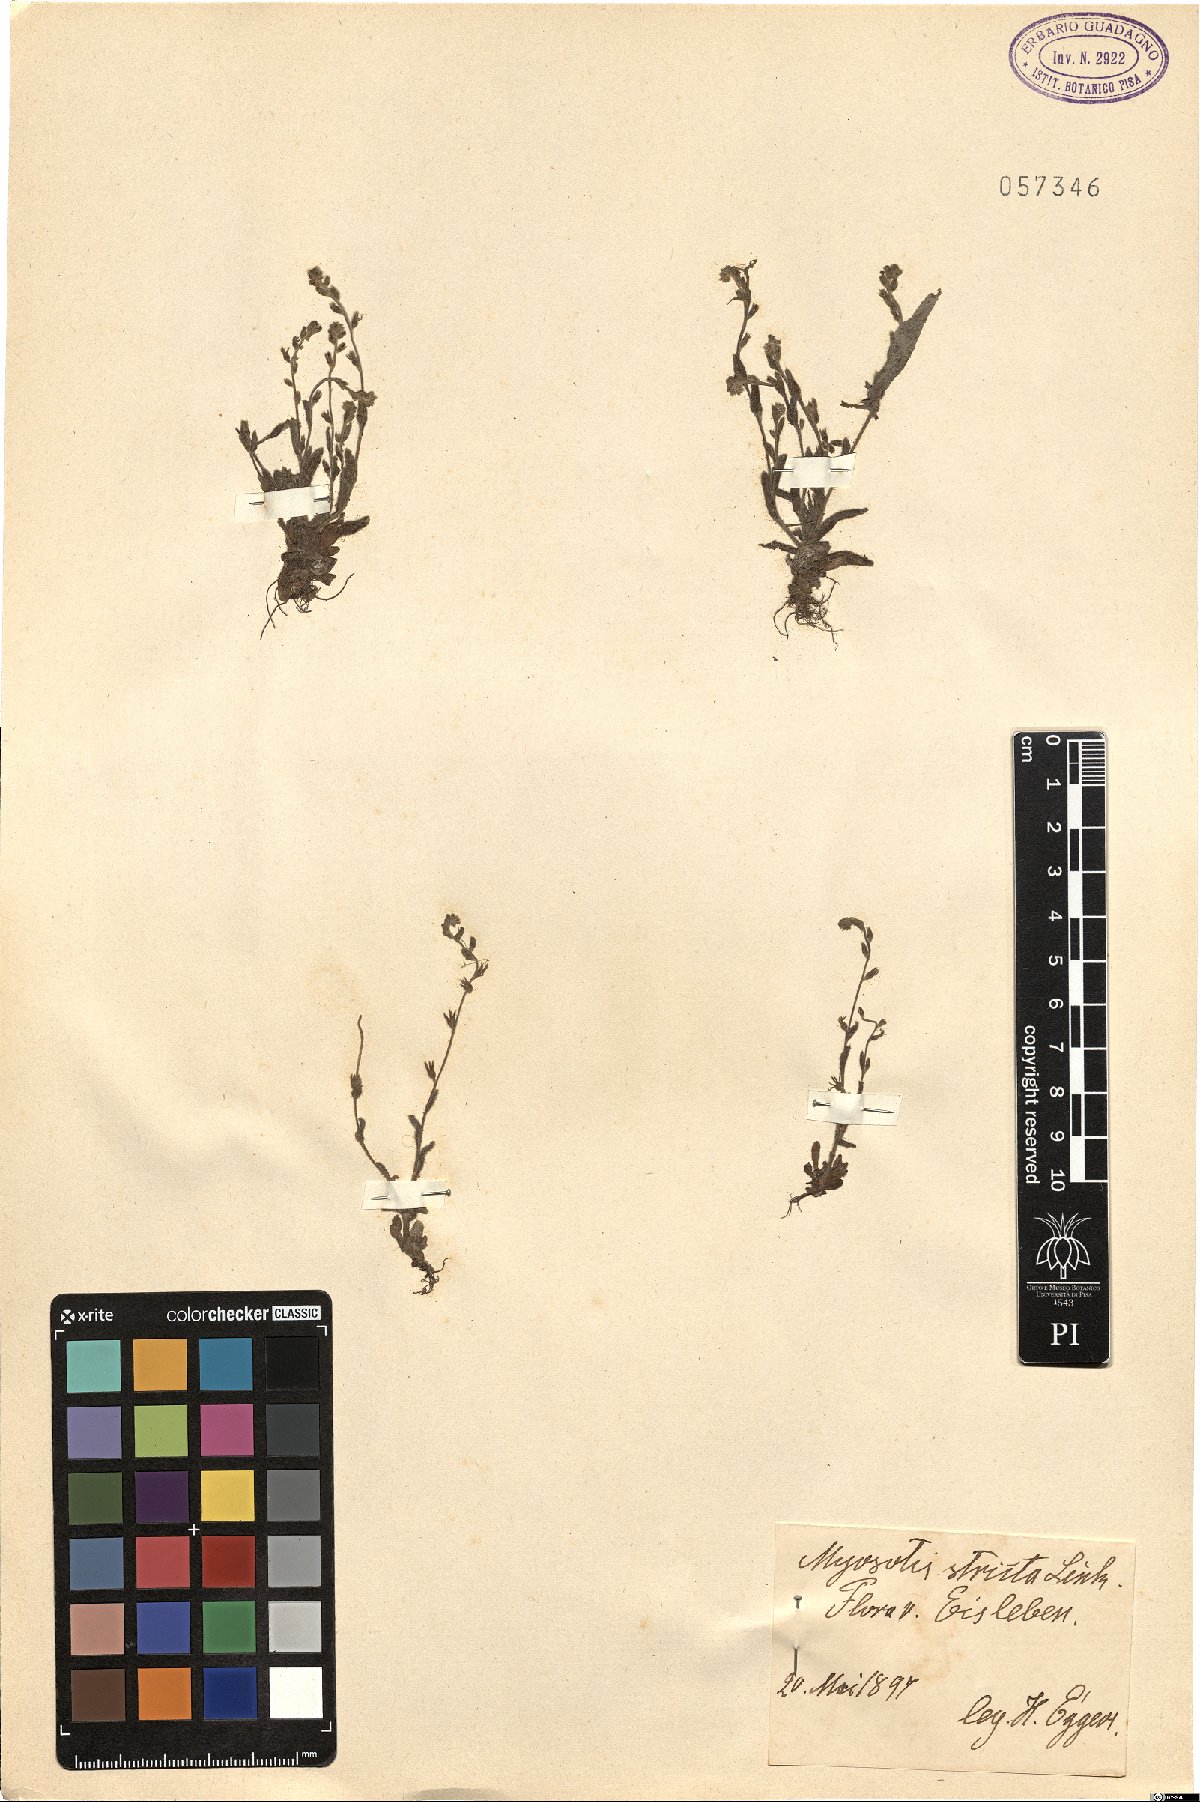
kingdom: Plantae
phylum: Tracheophyta
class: Magnoliopsida
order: Boraginales
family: Boraginaceae
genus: Myosotis
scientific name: Myosotis stricta
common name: Strict forget-me-not
